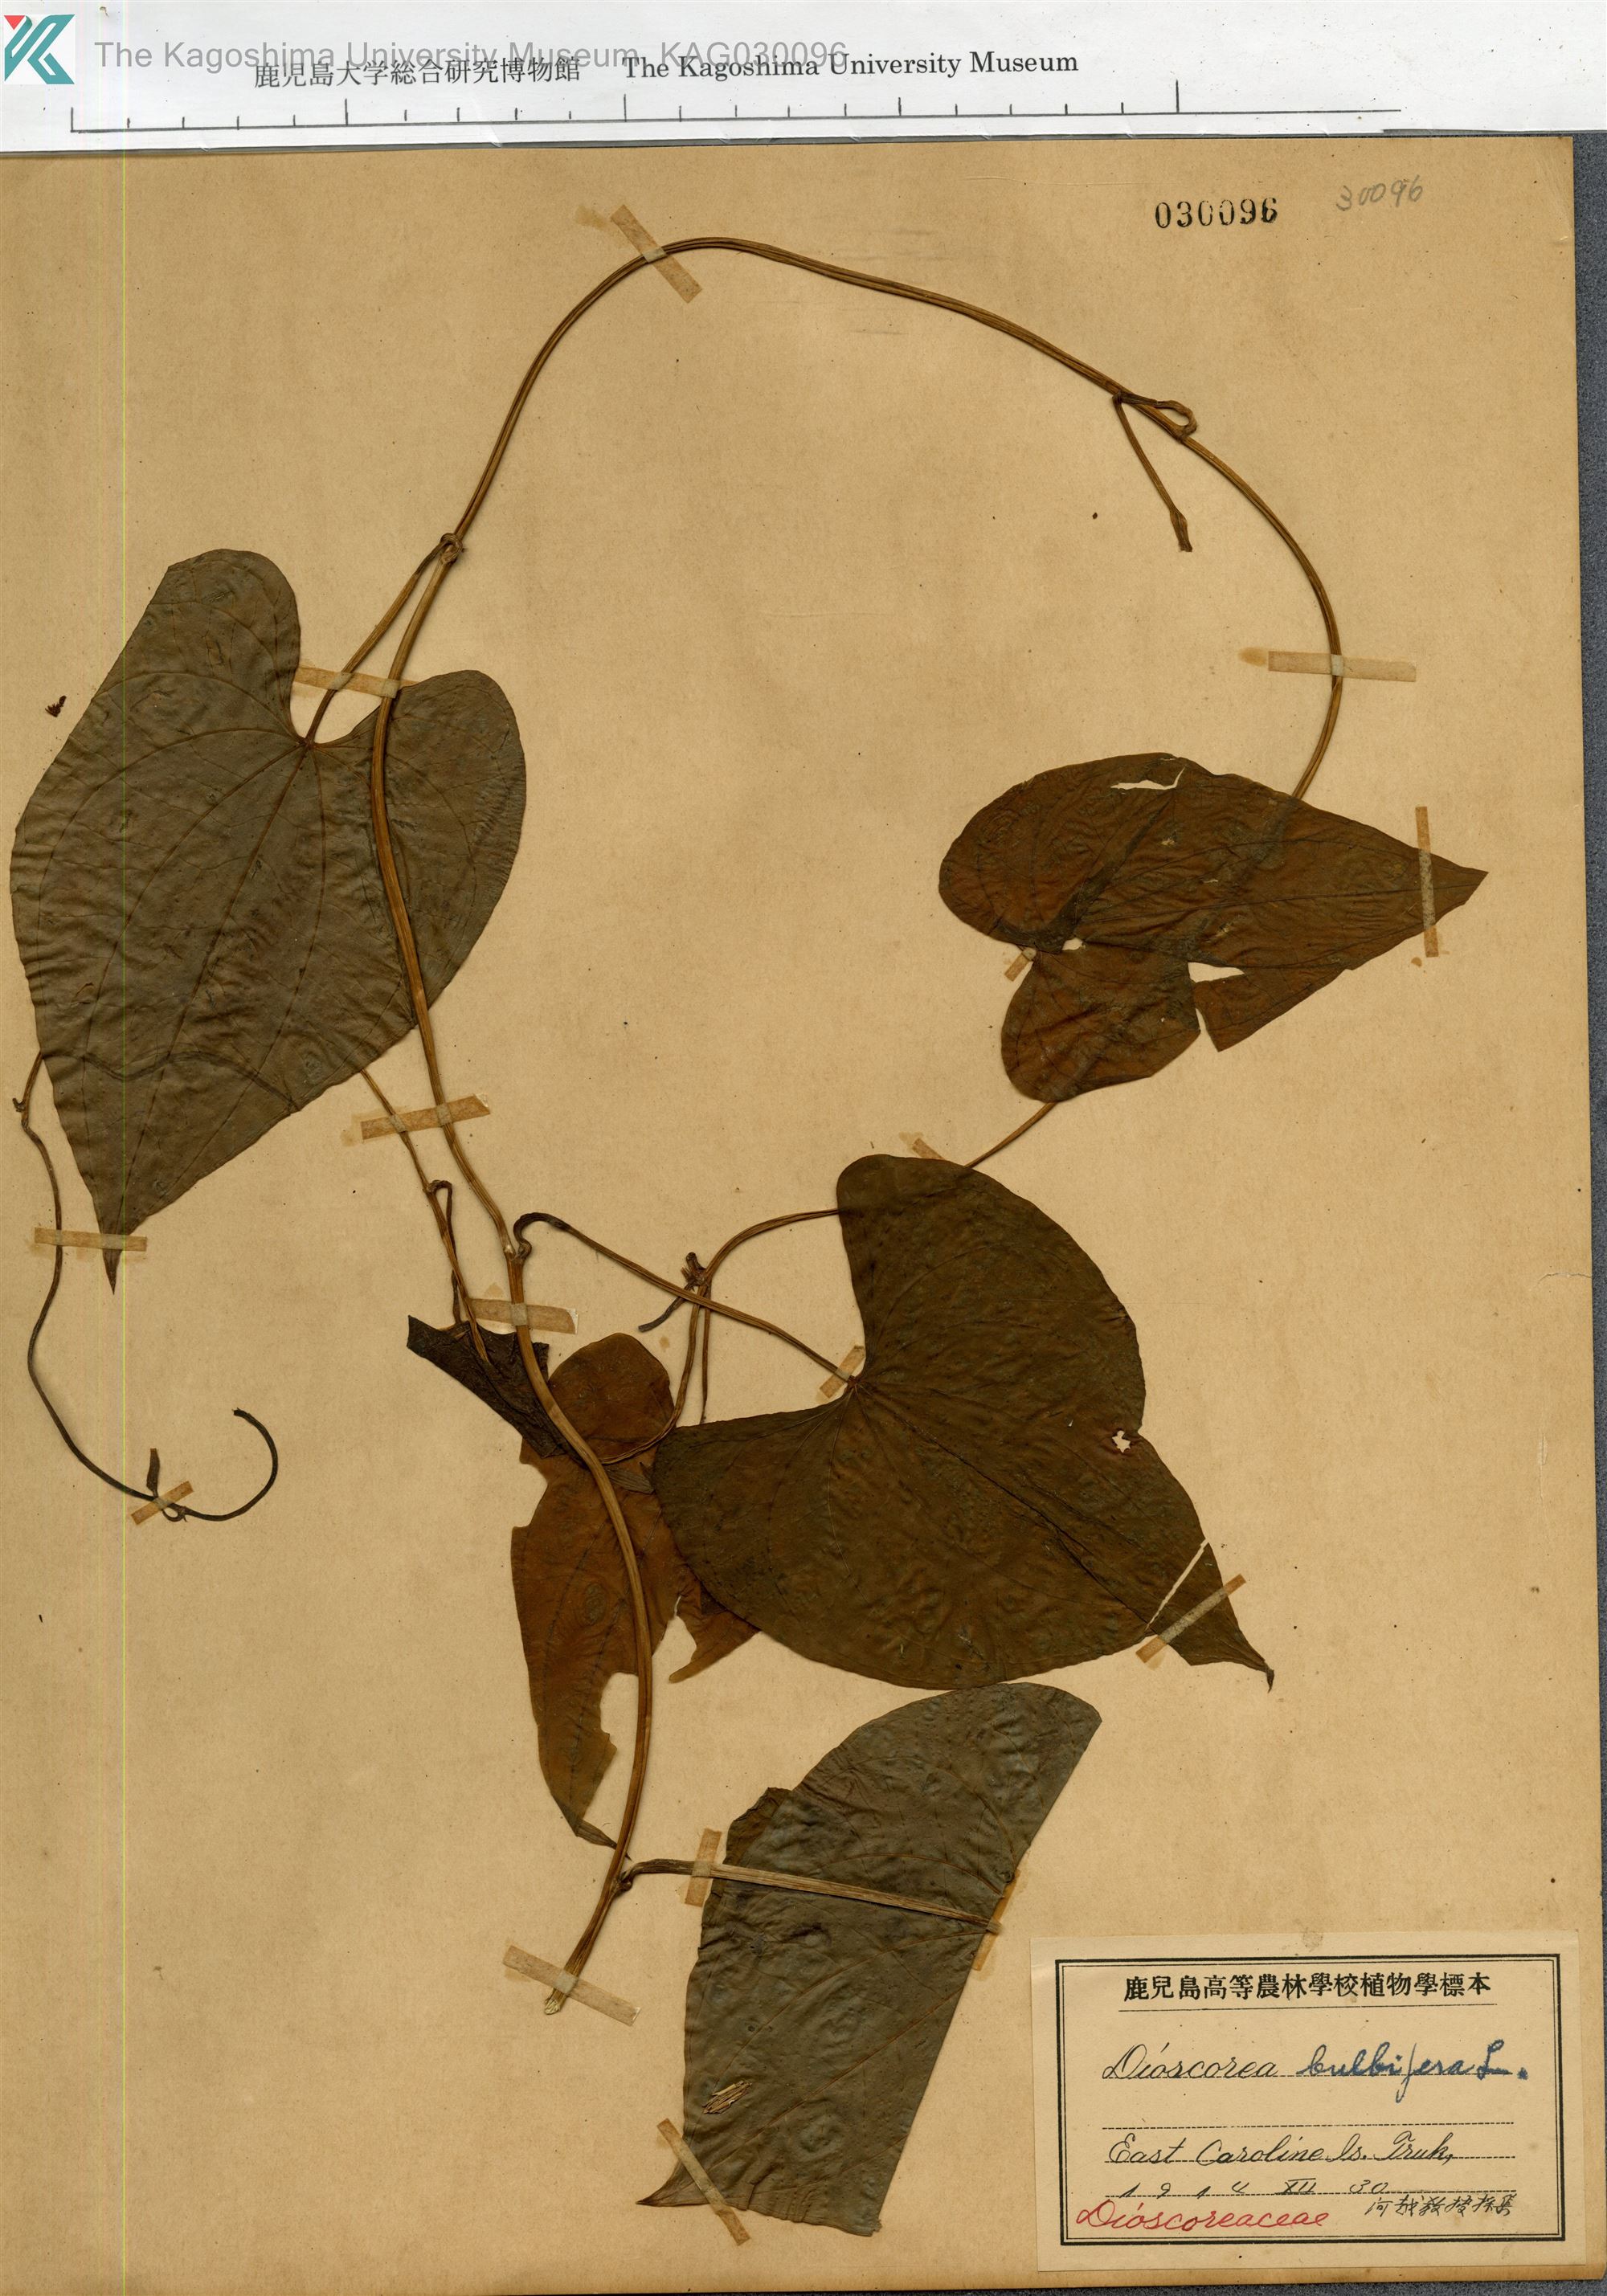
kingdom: Plantae
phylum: Tracheophyta
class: Liliopsida
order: Dioscoreales
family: Dioscoreaceae
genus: Dioscorea
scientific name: Dioscorea bulbifera
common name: Air yam
